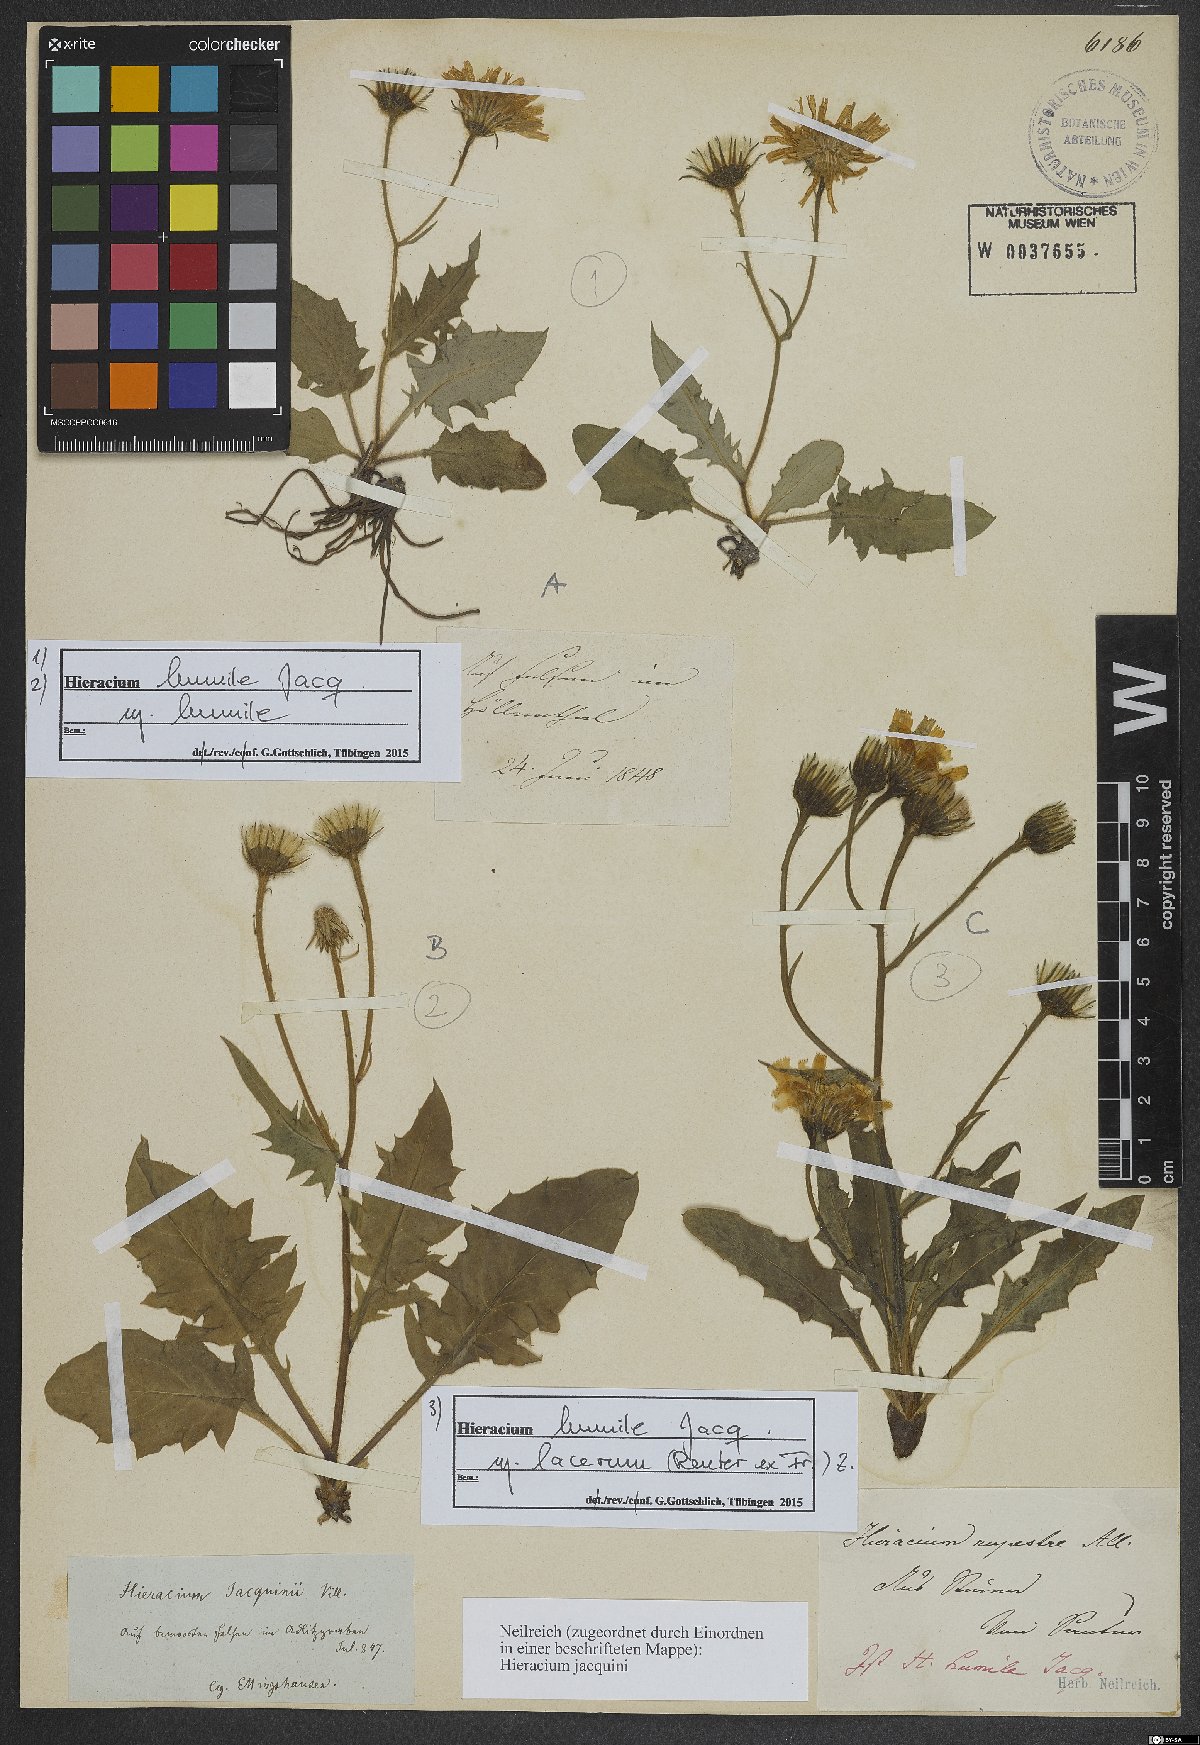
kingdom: Plantae
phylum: Tracheophyta
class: Magnoliopsida
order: Asterales
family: Asteraceae
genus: Hieracium
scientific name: Hieracium humile
